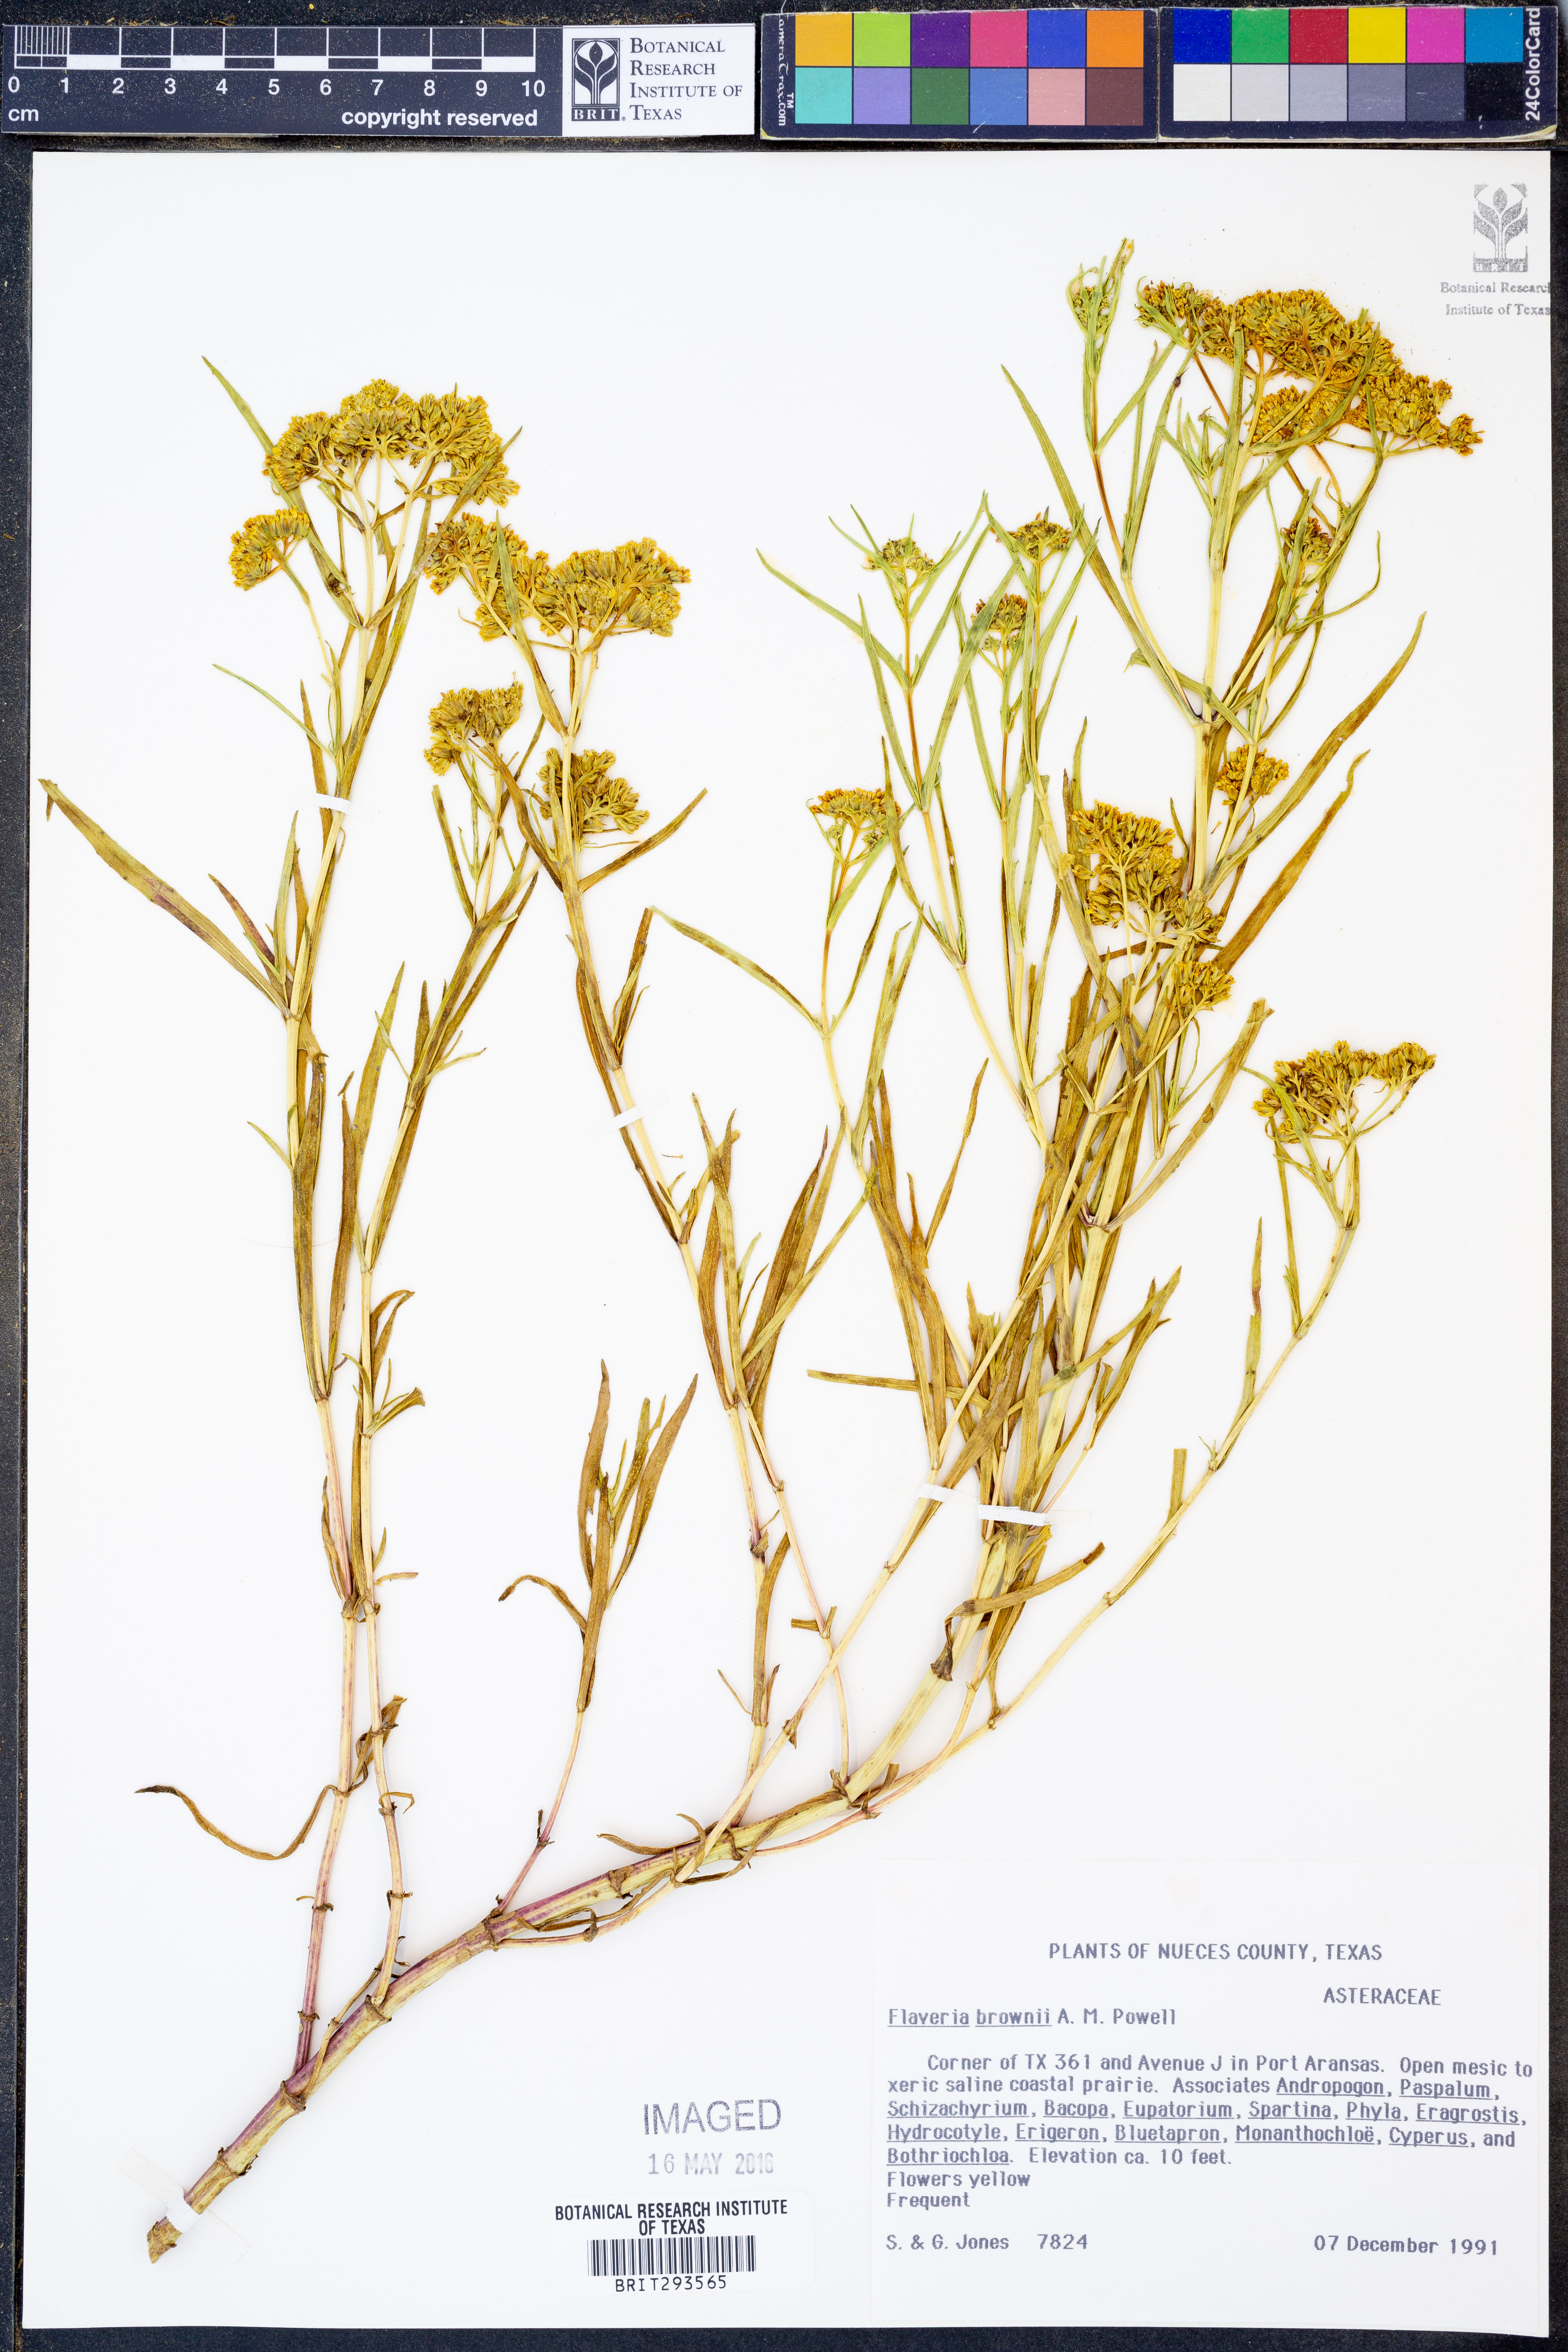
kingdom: Plantae
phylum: Tracheophyta
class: Magnoliopsida
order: Asterales
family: Asteraceae
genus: Flaveria
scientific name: Flaveria brownii
